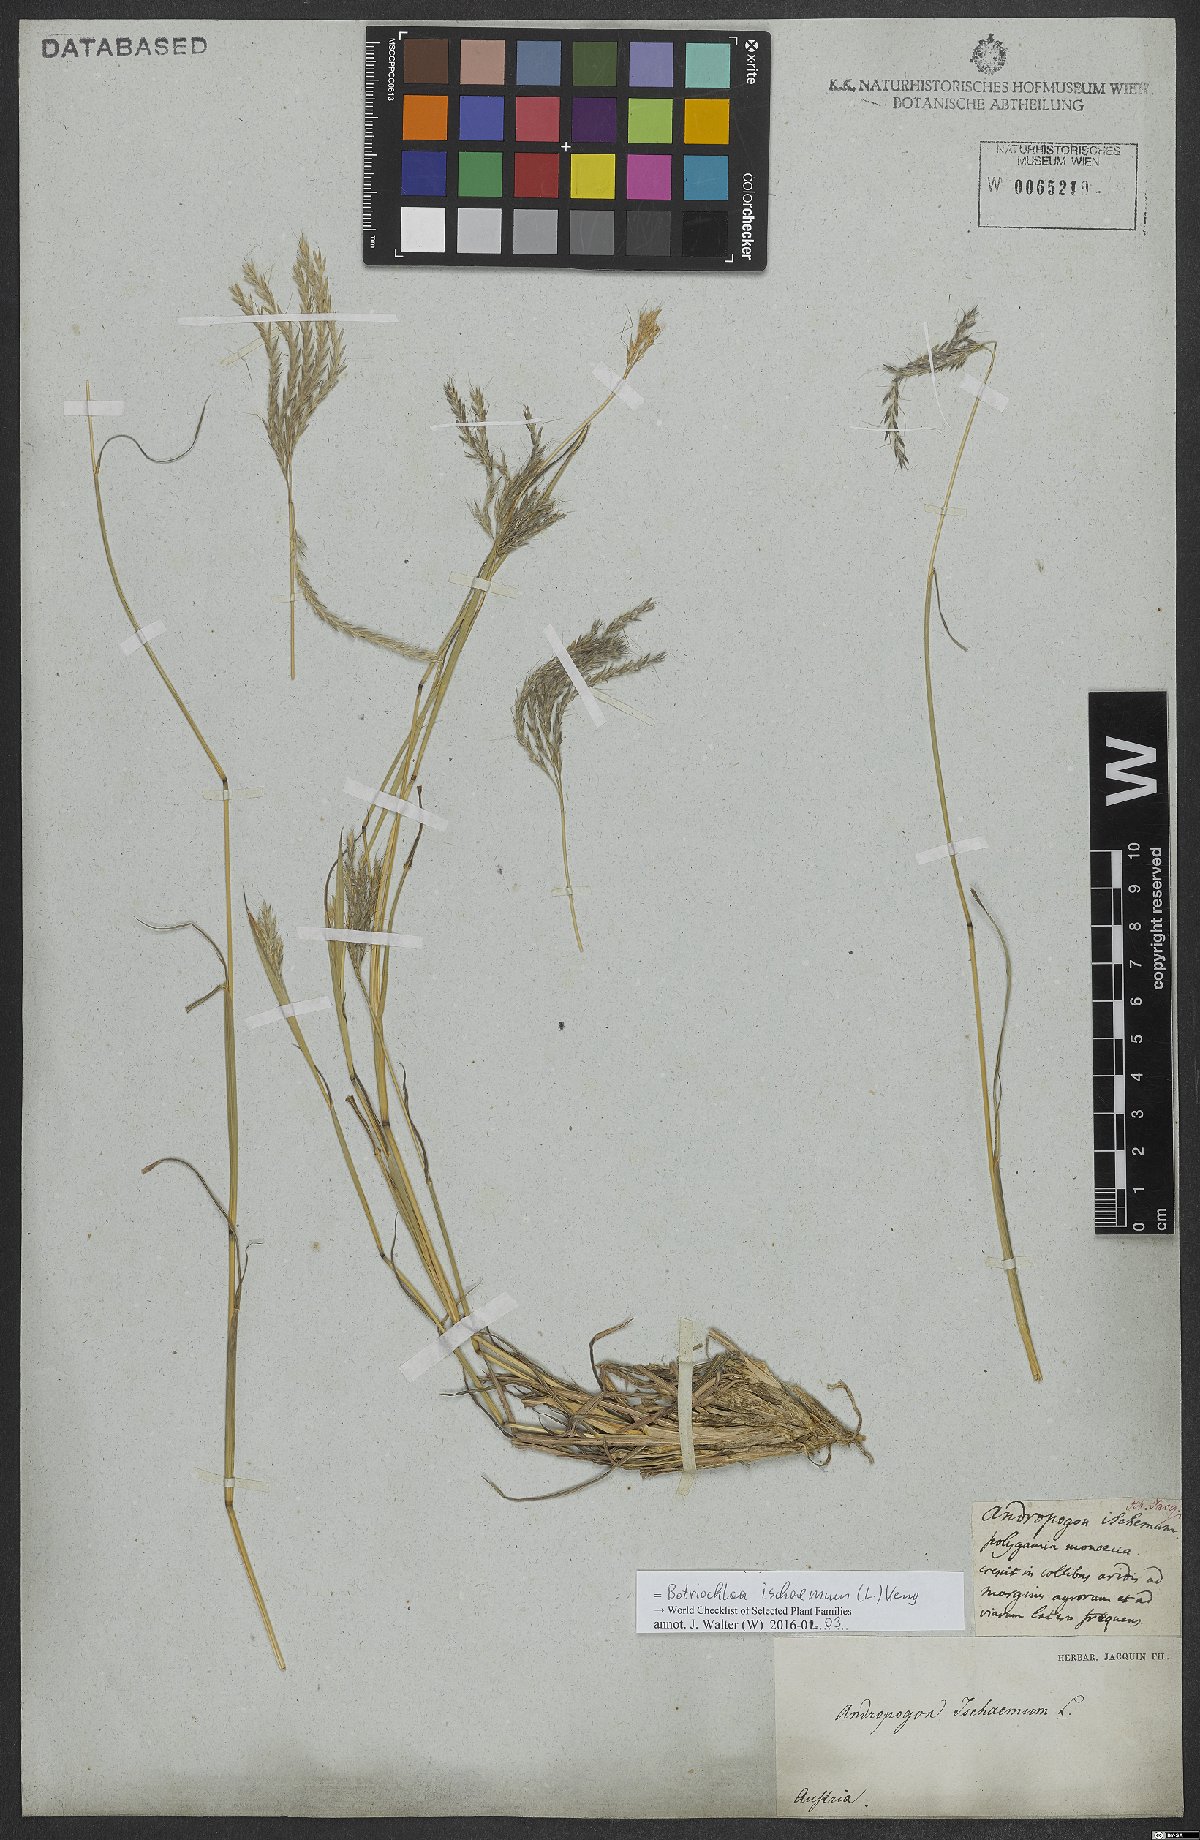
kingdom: Plantae
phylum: Tracheophyta
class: Liliopsida
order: Poales
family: Poaceae
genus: Bothriochloa
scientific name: Bothriochloa ischaemum
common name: Yellow bluestem
